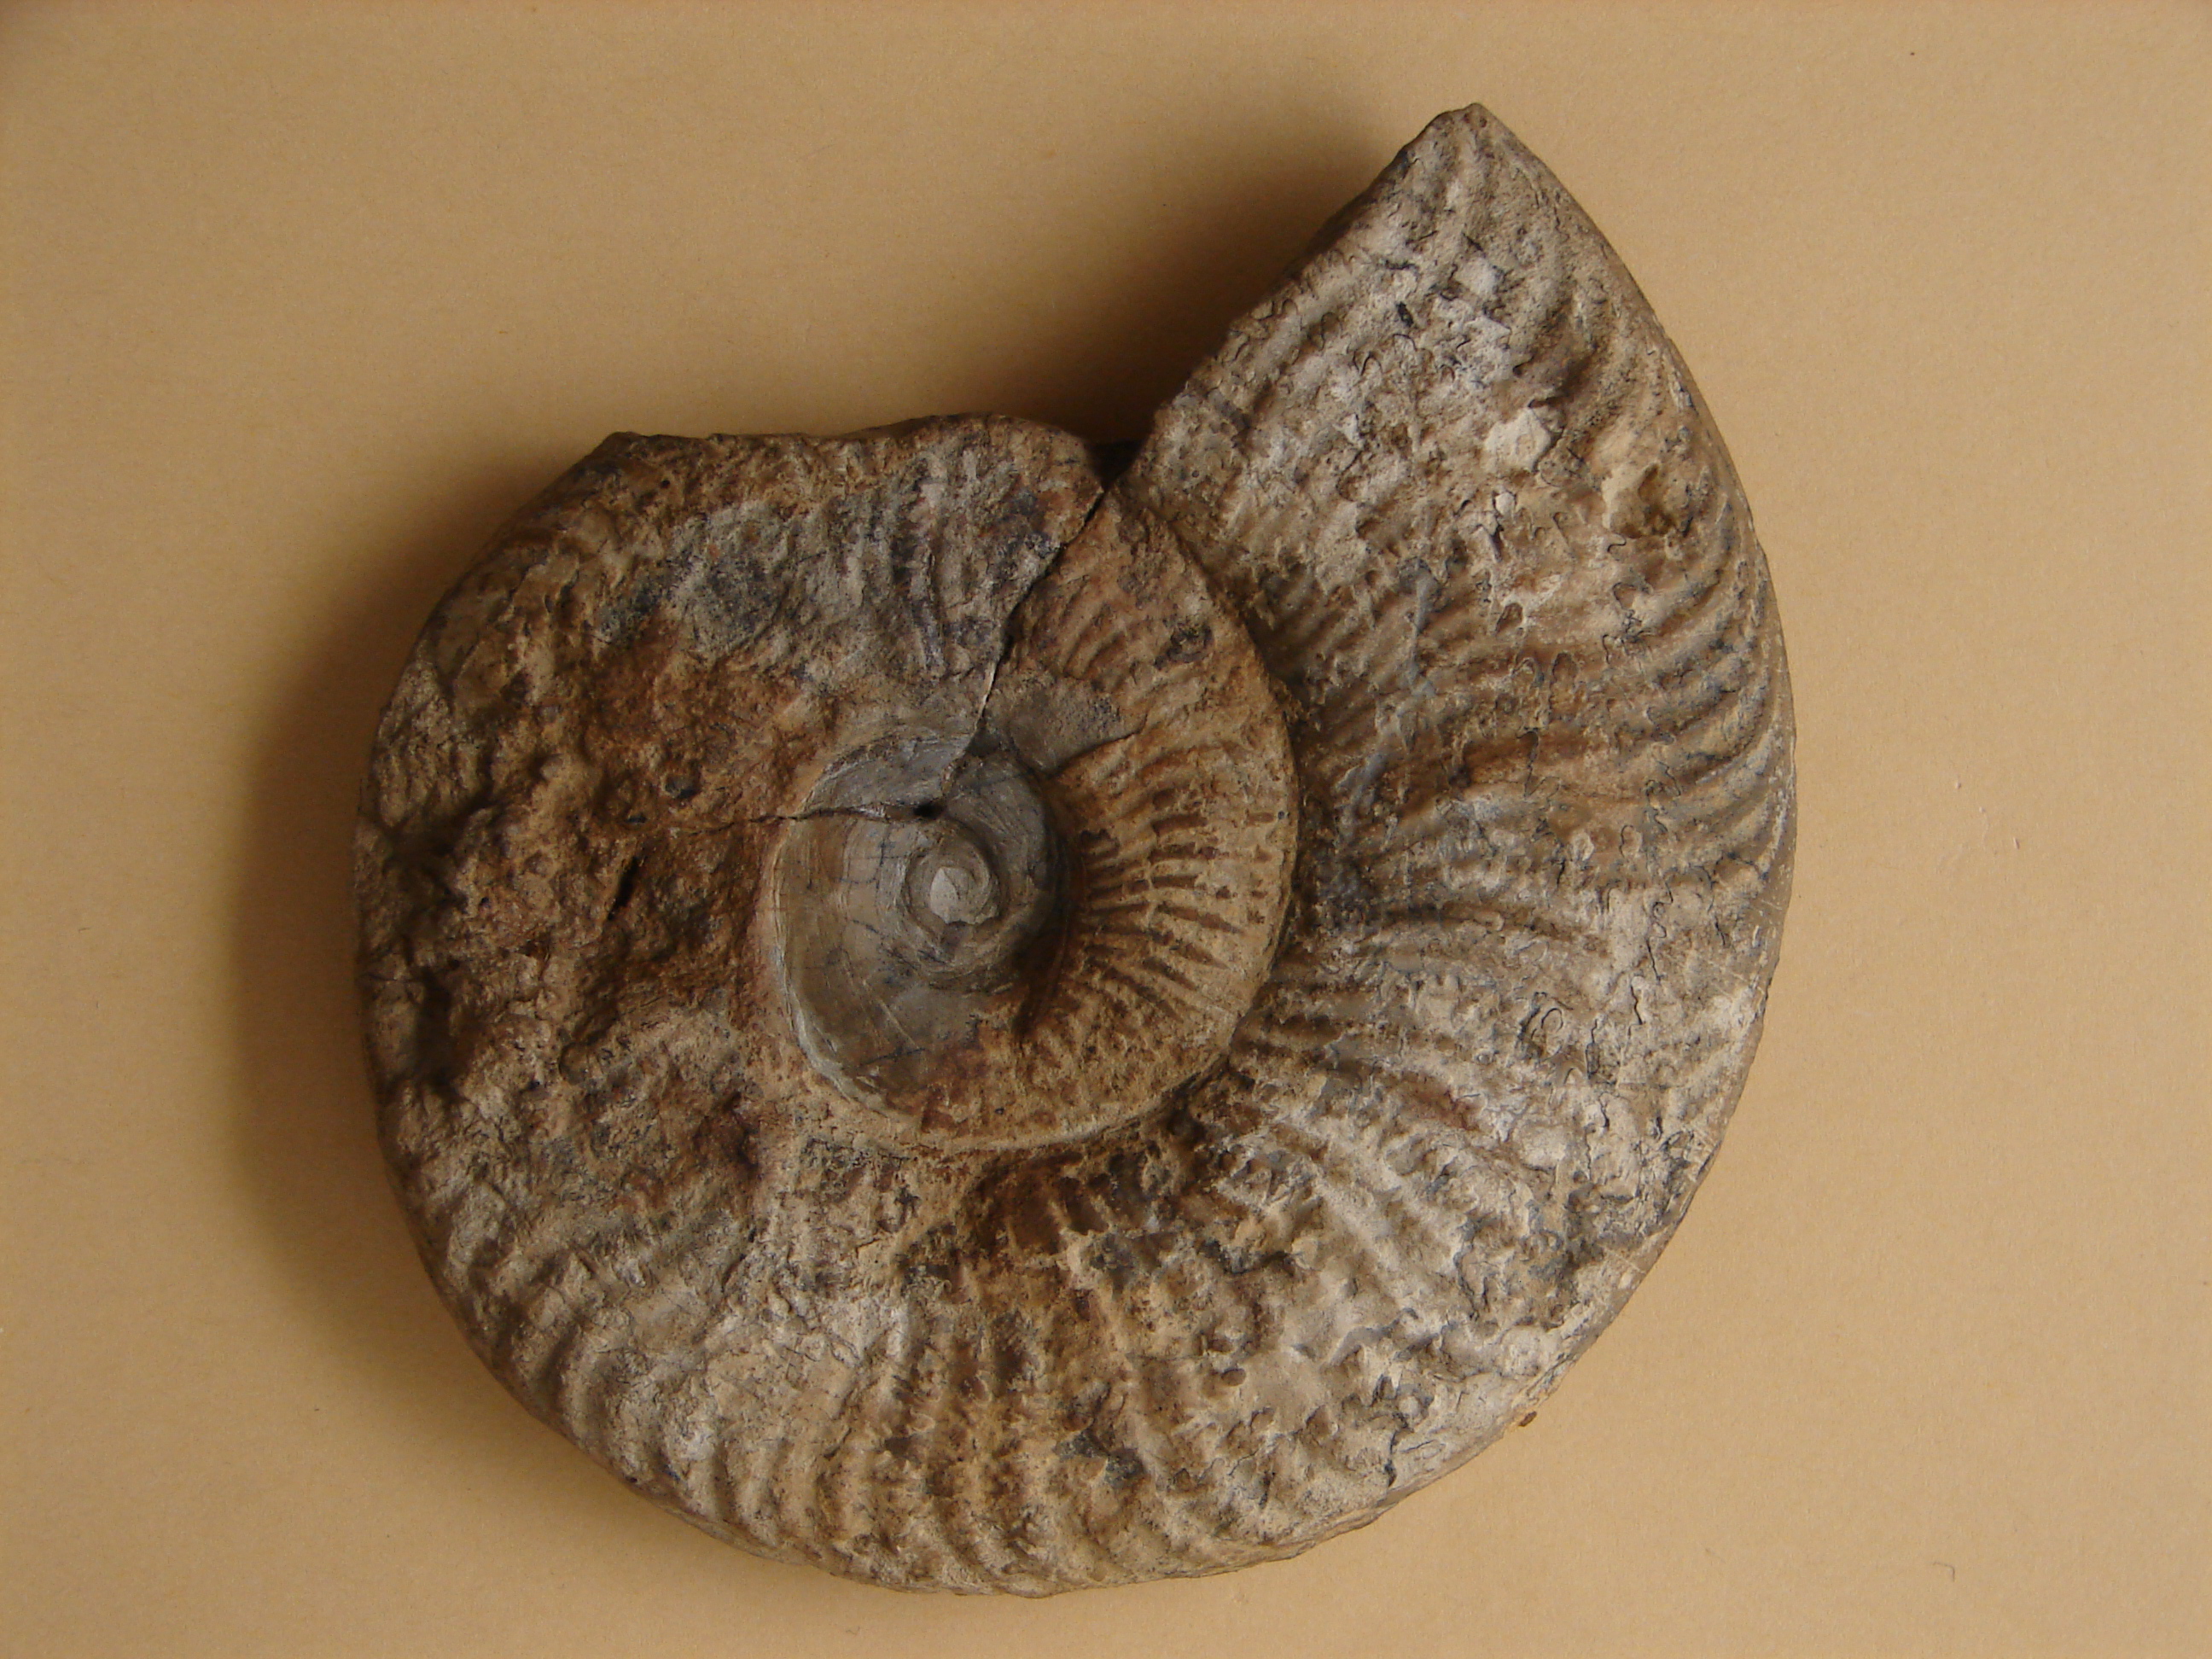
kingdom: Animalia
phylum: Mollusca
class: Cephalopoda
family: Hildoceratidae
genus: Pseudogrammoceras
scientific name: Pseudogrammoceras fallaciosum
